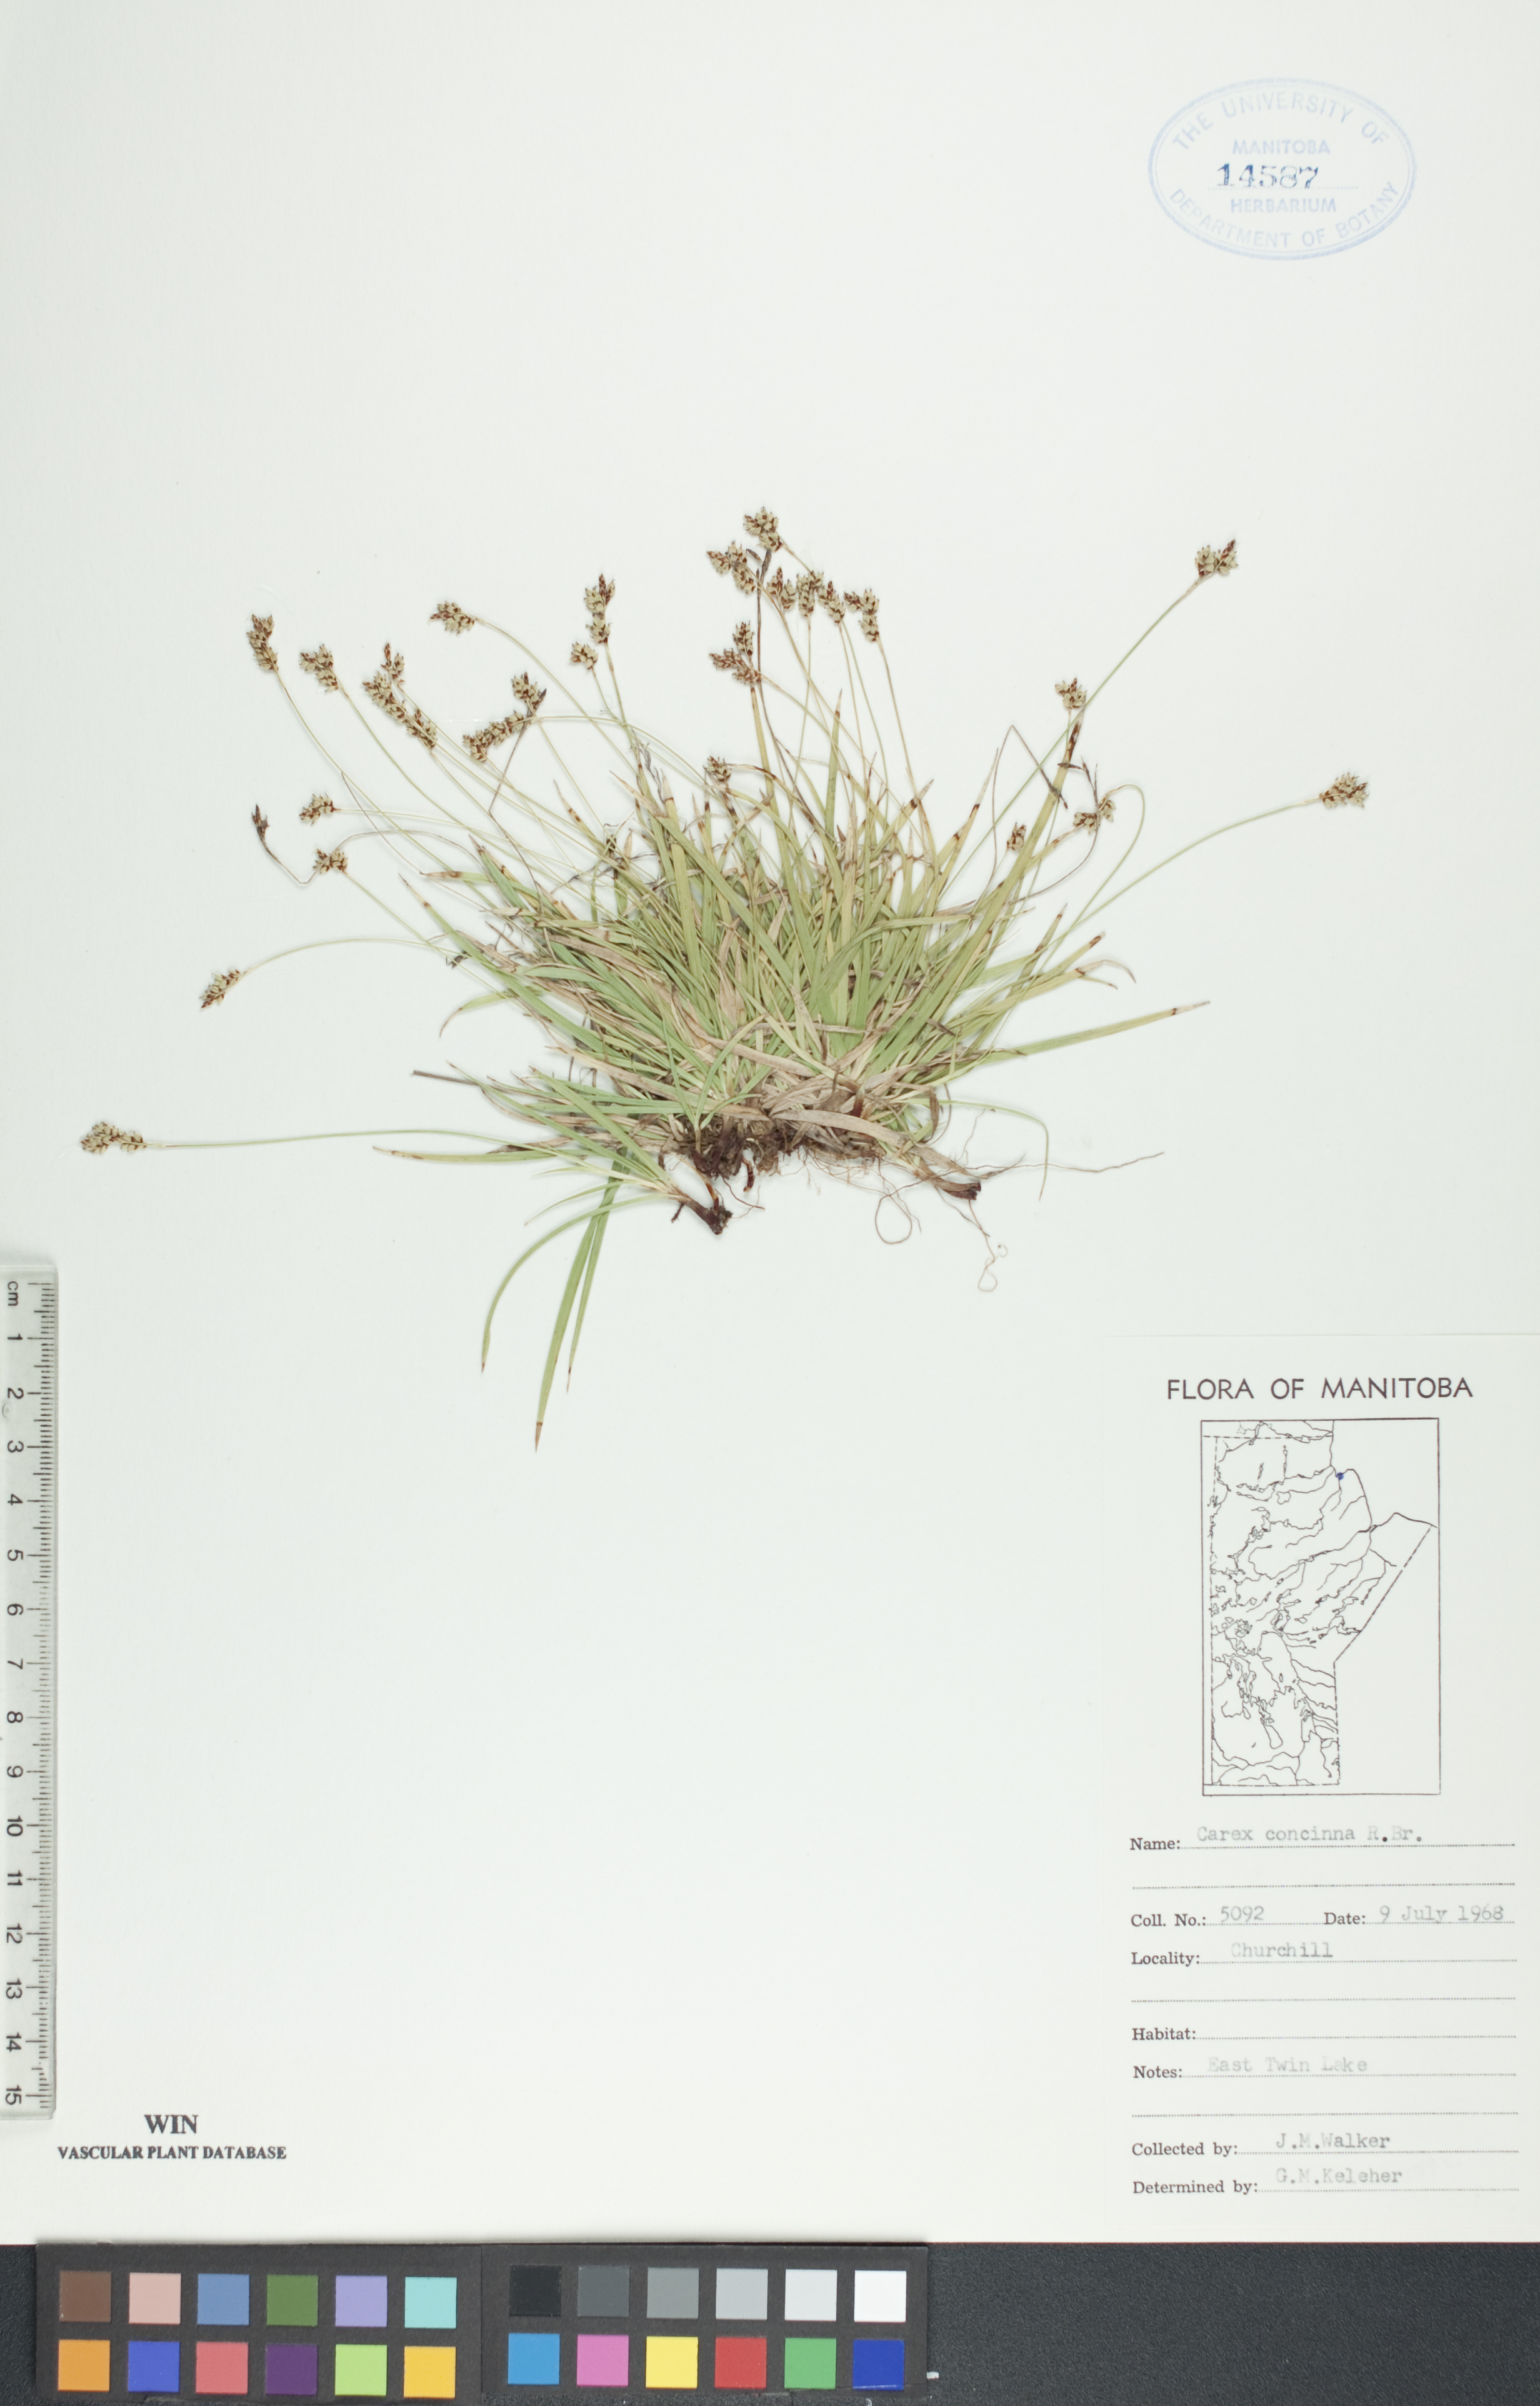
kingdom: Plantae
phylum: Tracheophyta
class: Liliopsida
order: Poales
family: Cyperaceae
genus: Carex
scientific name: Carex concinna
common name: Beautiful sedge
